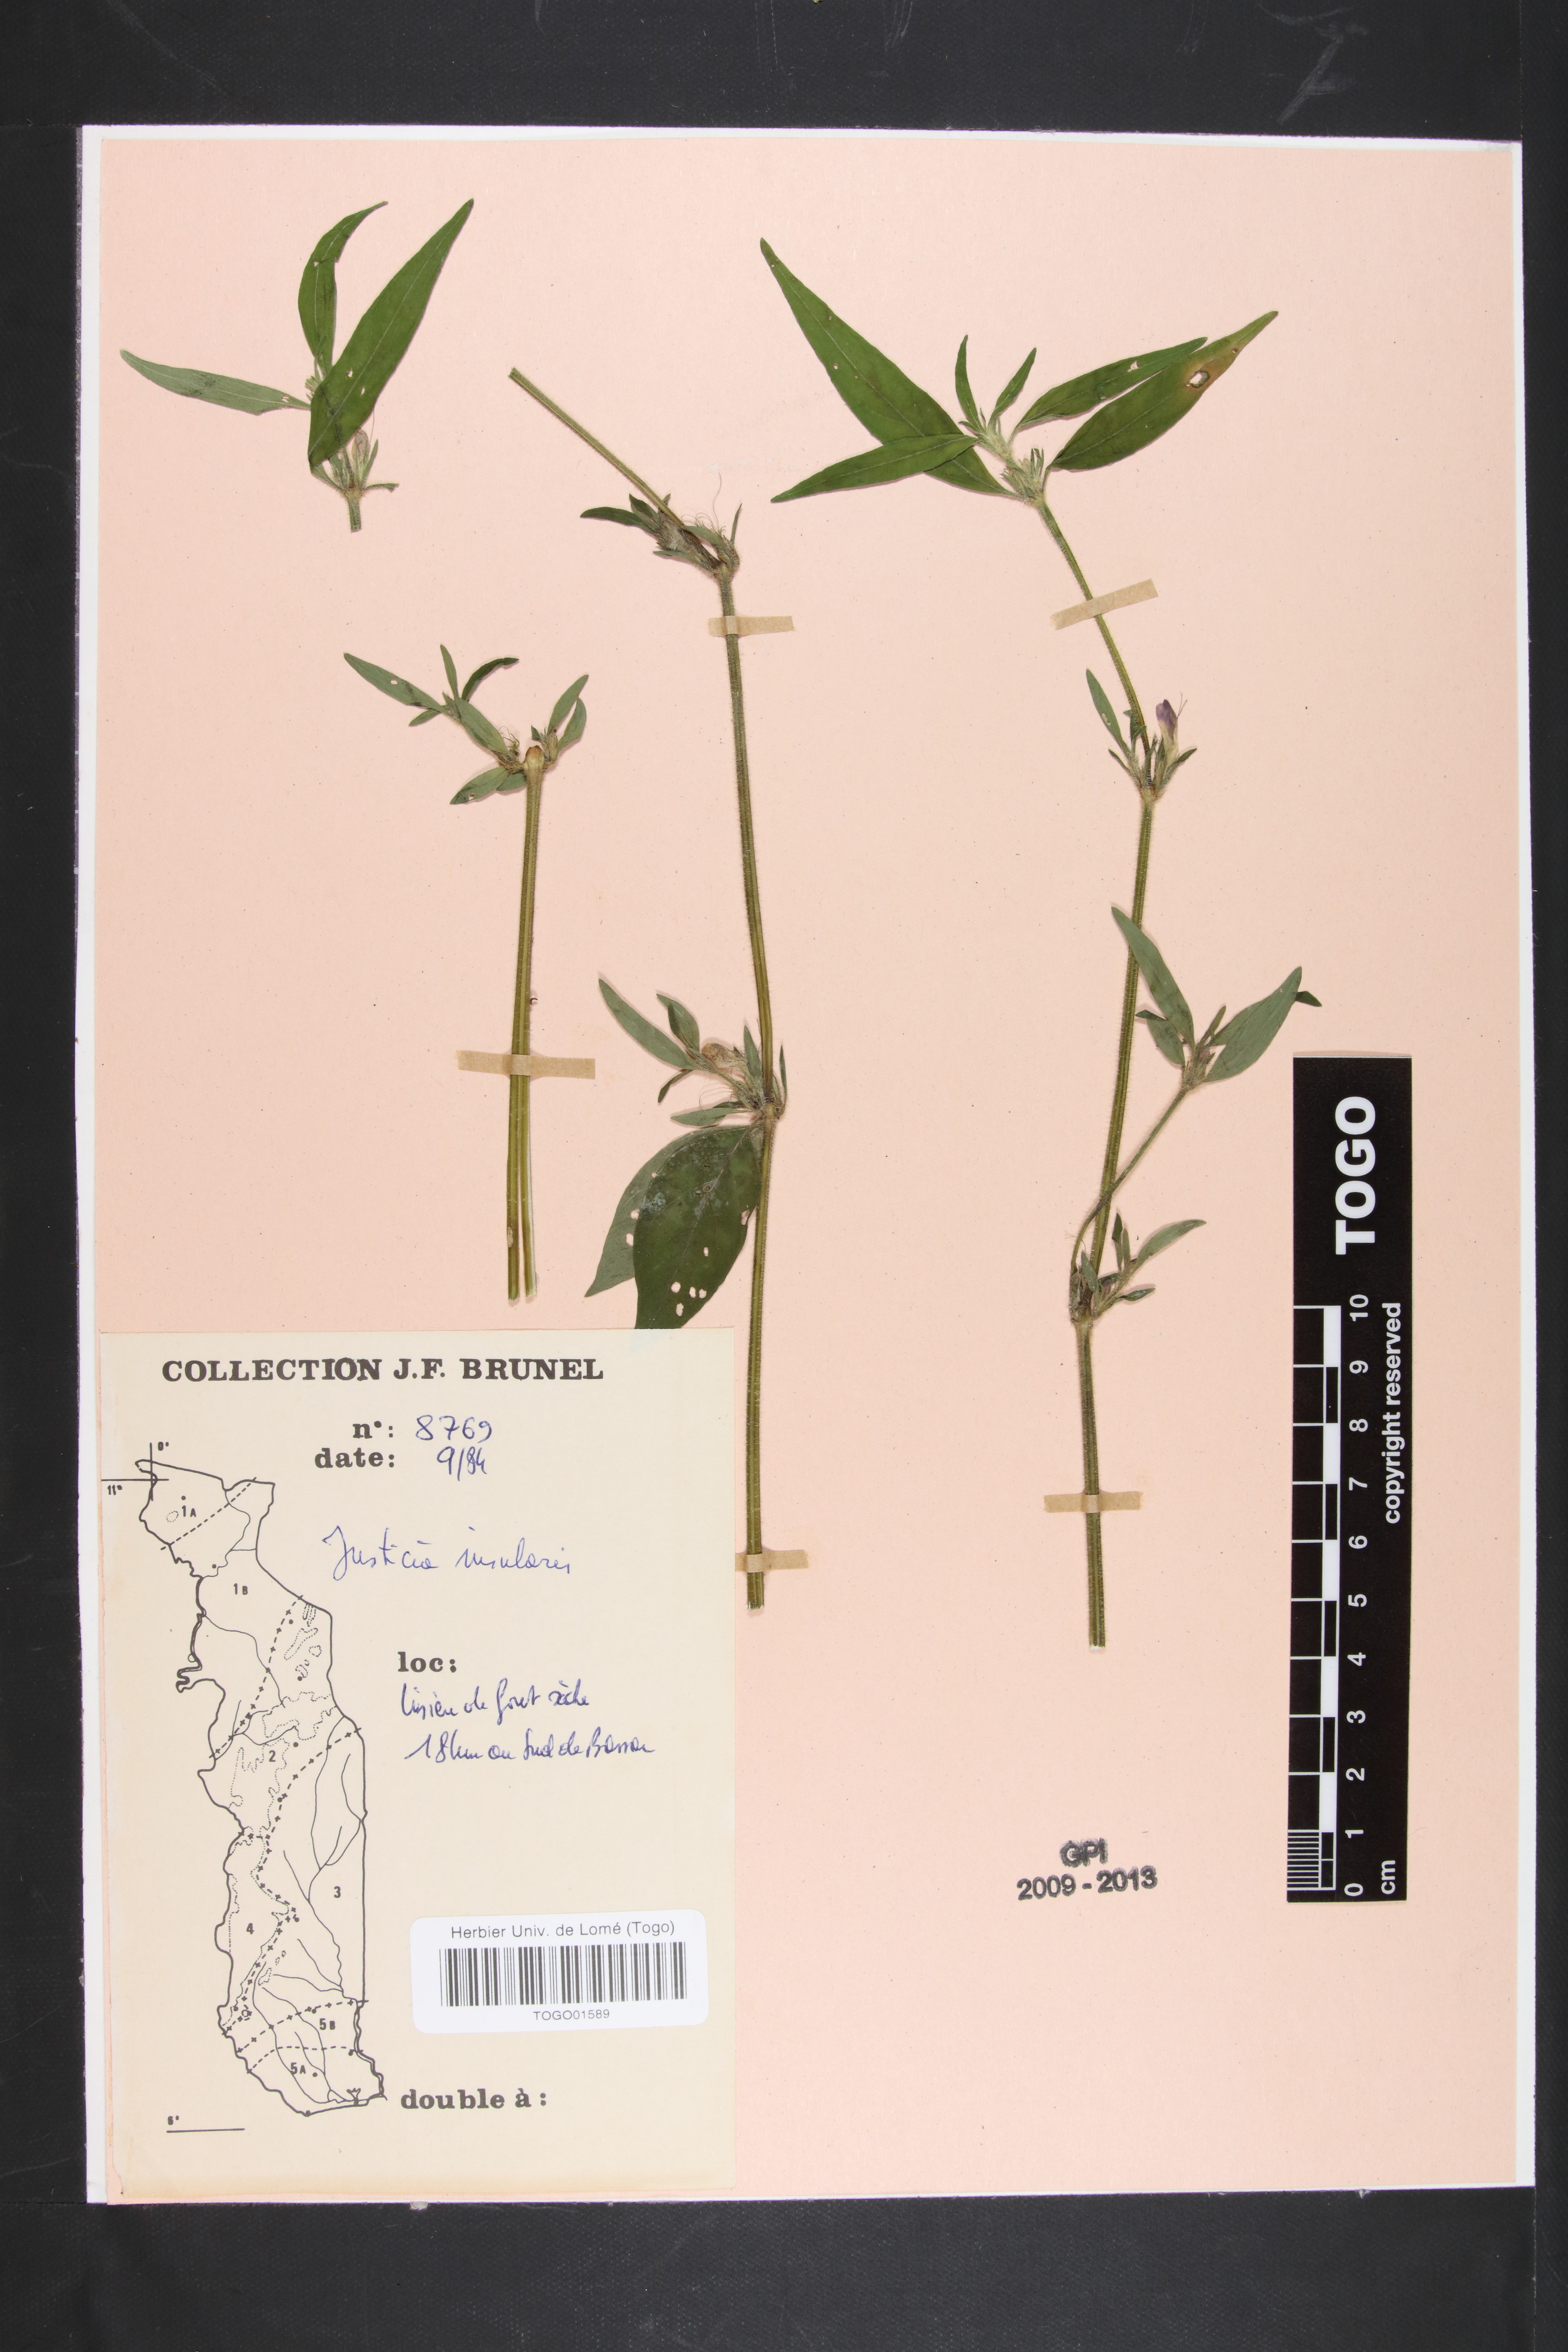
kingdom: Plantae
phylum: Tracheophyta
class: Magnoliopsida
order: Lamiales
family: Acanthaceae
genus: Justicia
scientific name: Justicia insularis
